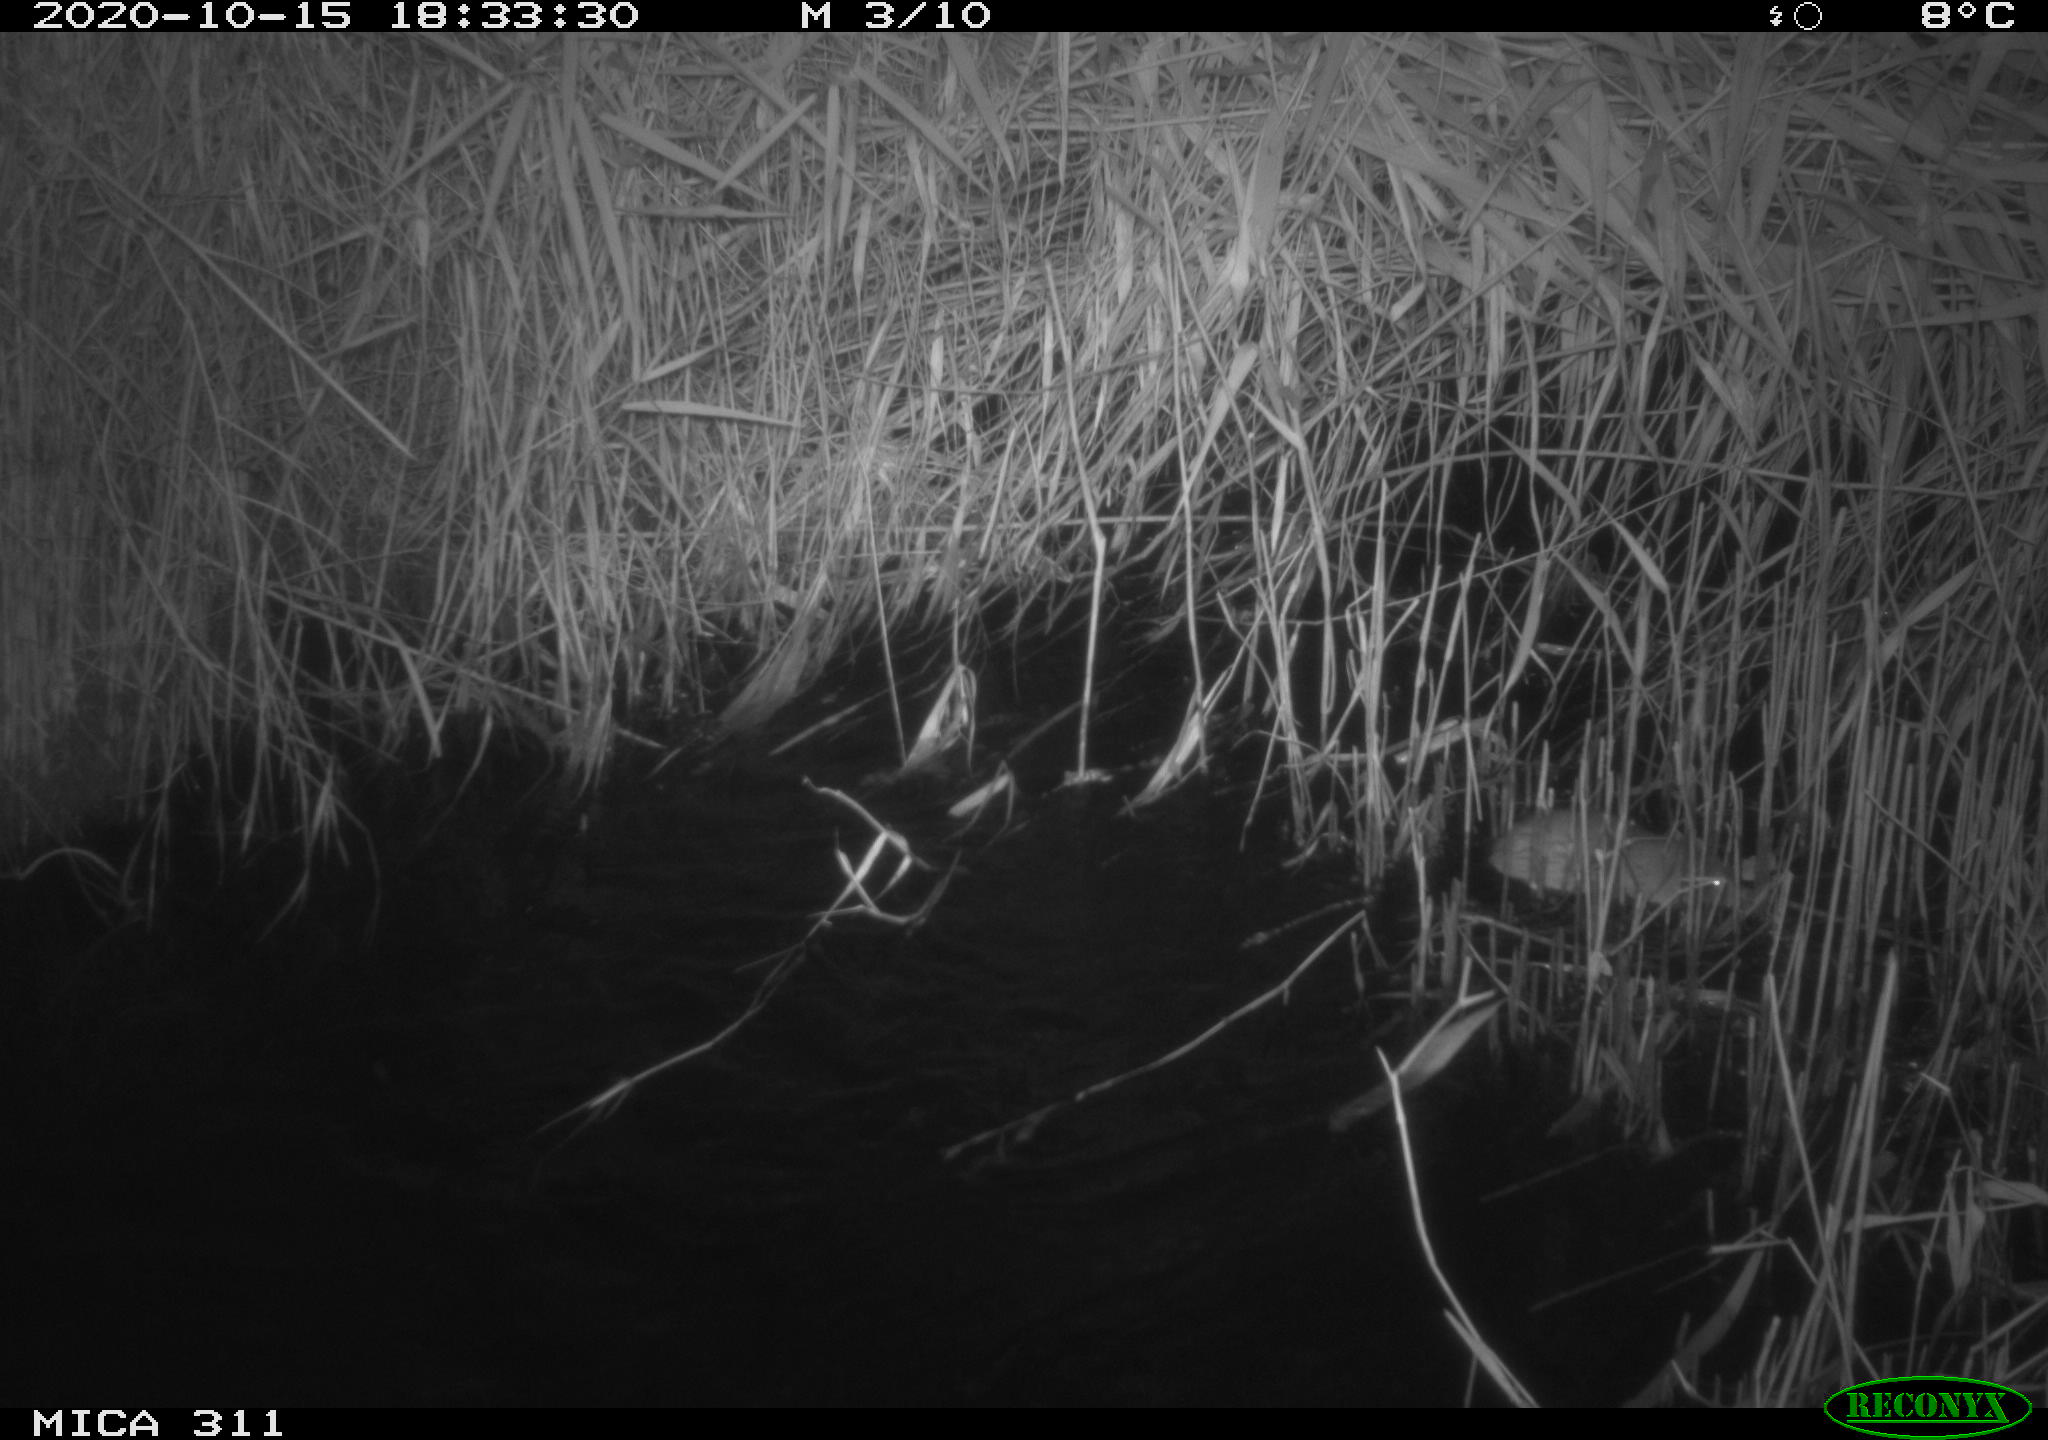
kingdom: Animalia
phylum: Chordata
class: Mammalia
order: Rodentia
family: Muridae
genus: Rattus
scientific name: Rattus norvegicus
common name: Brown rat
